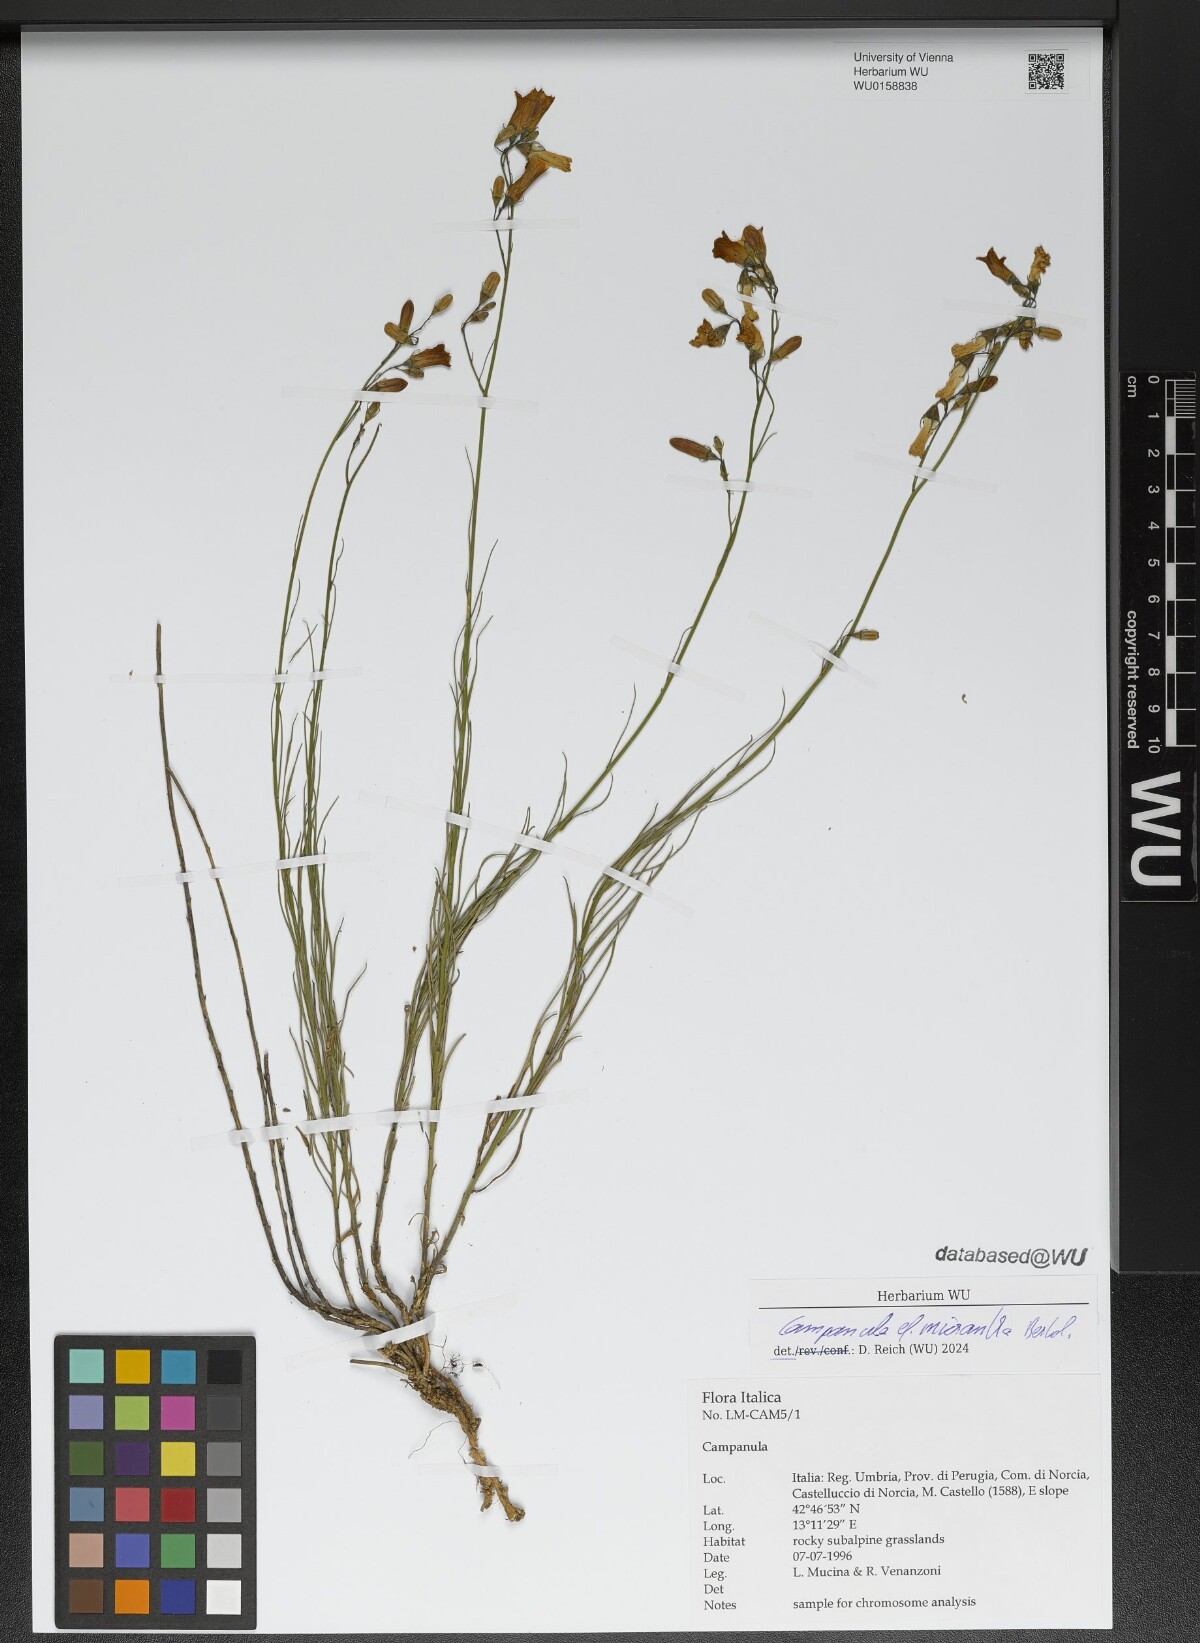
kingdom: Plantae
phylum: Tracheophyta
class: Magnoliopsida
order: Asterales
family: Campanulaceae
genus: Campanula
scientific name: Campanula micrantha
